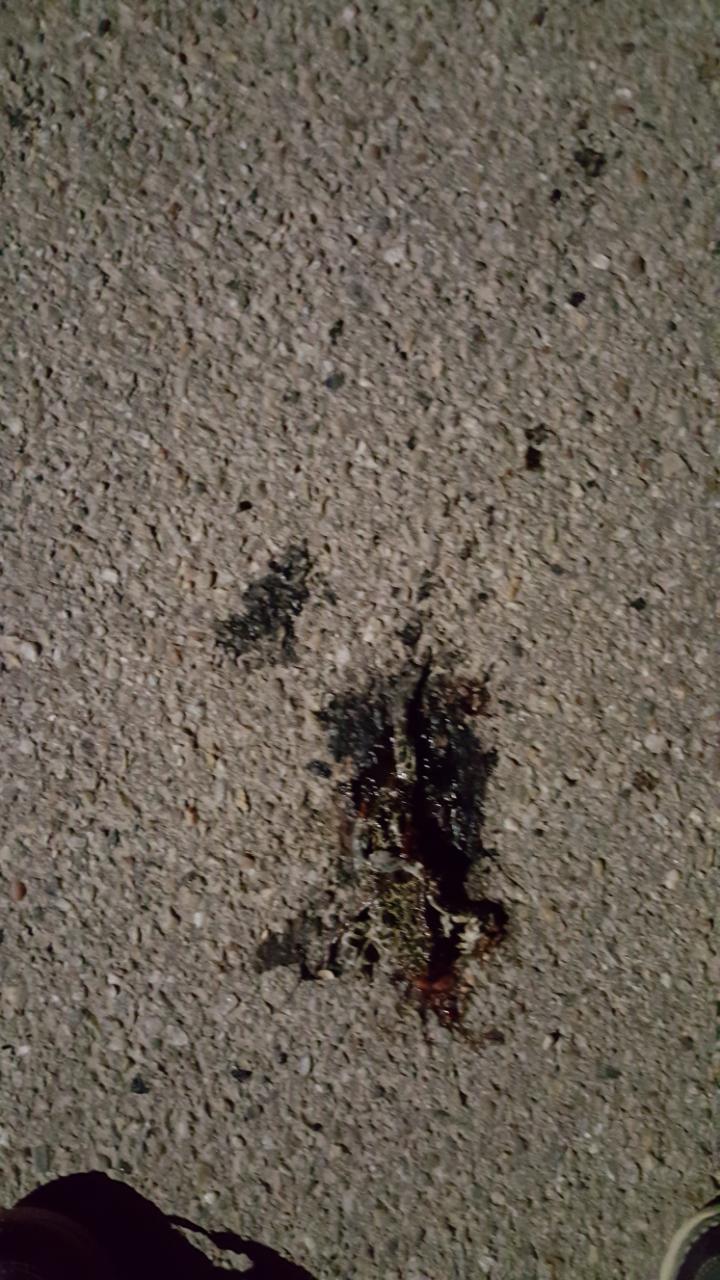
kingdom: Animalia
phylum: Chordata
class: Amphibia
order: Anura
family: Bufonidae
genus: Bufotes
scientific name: Bufotes viridis
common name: European green toad
